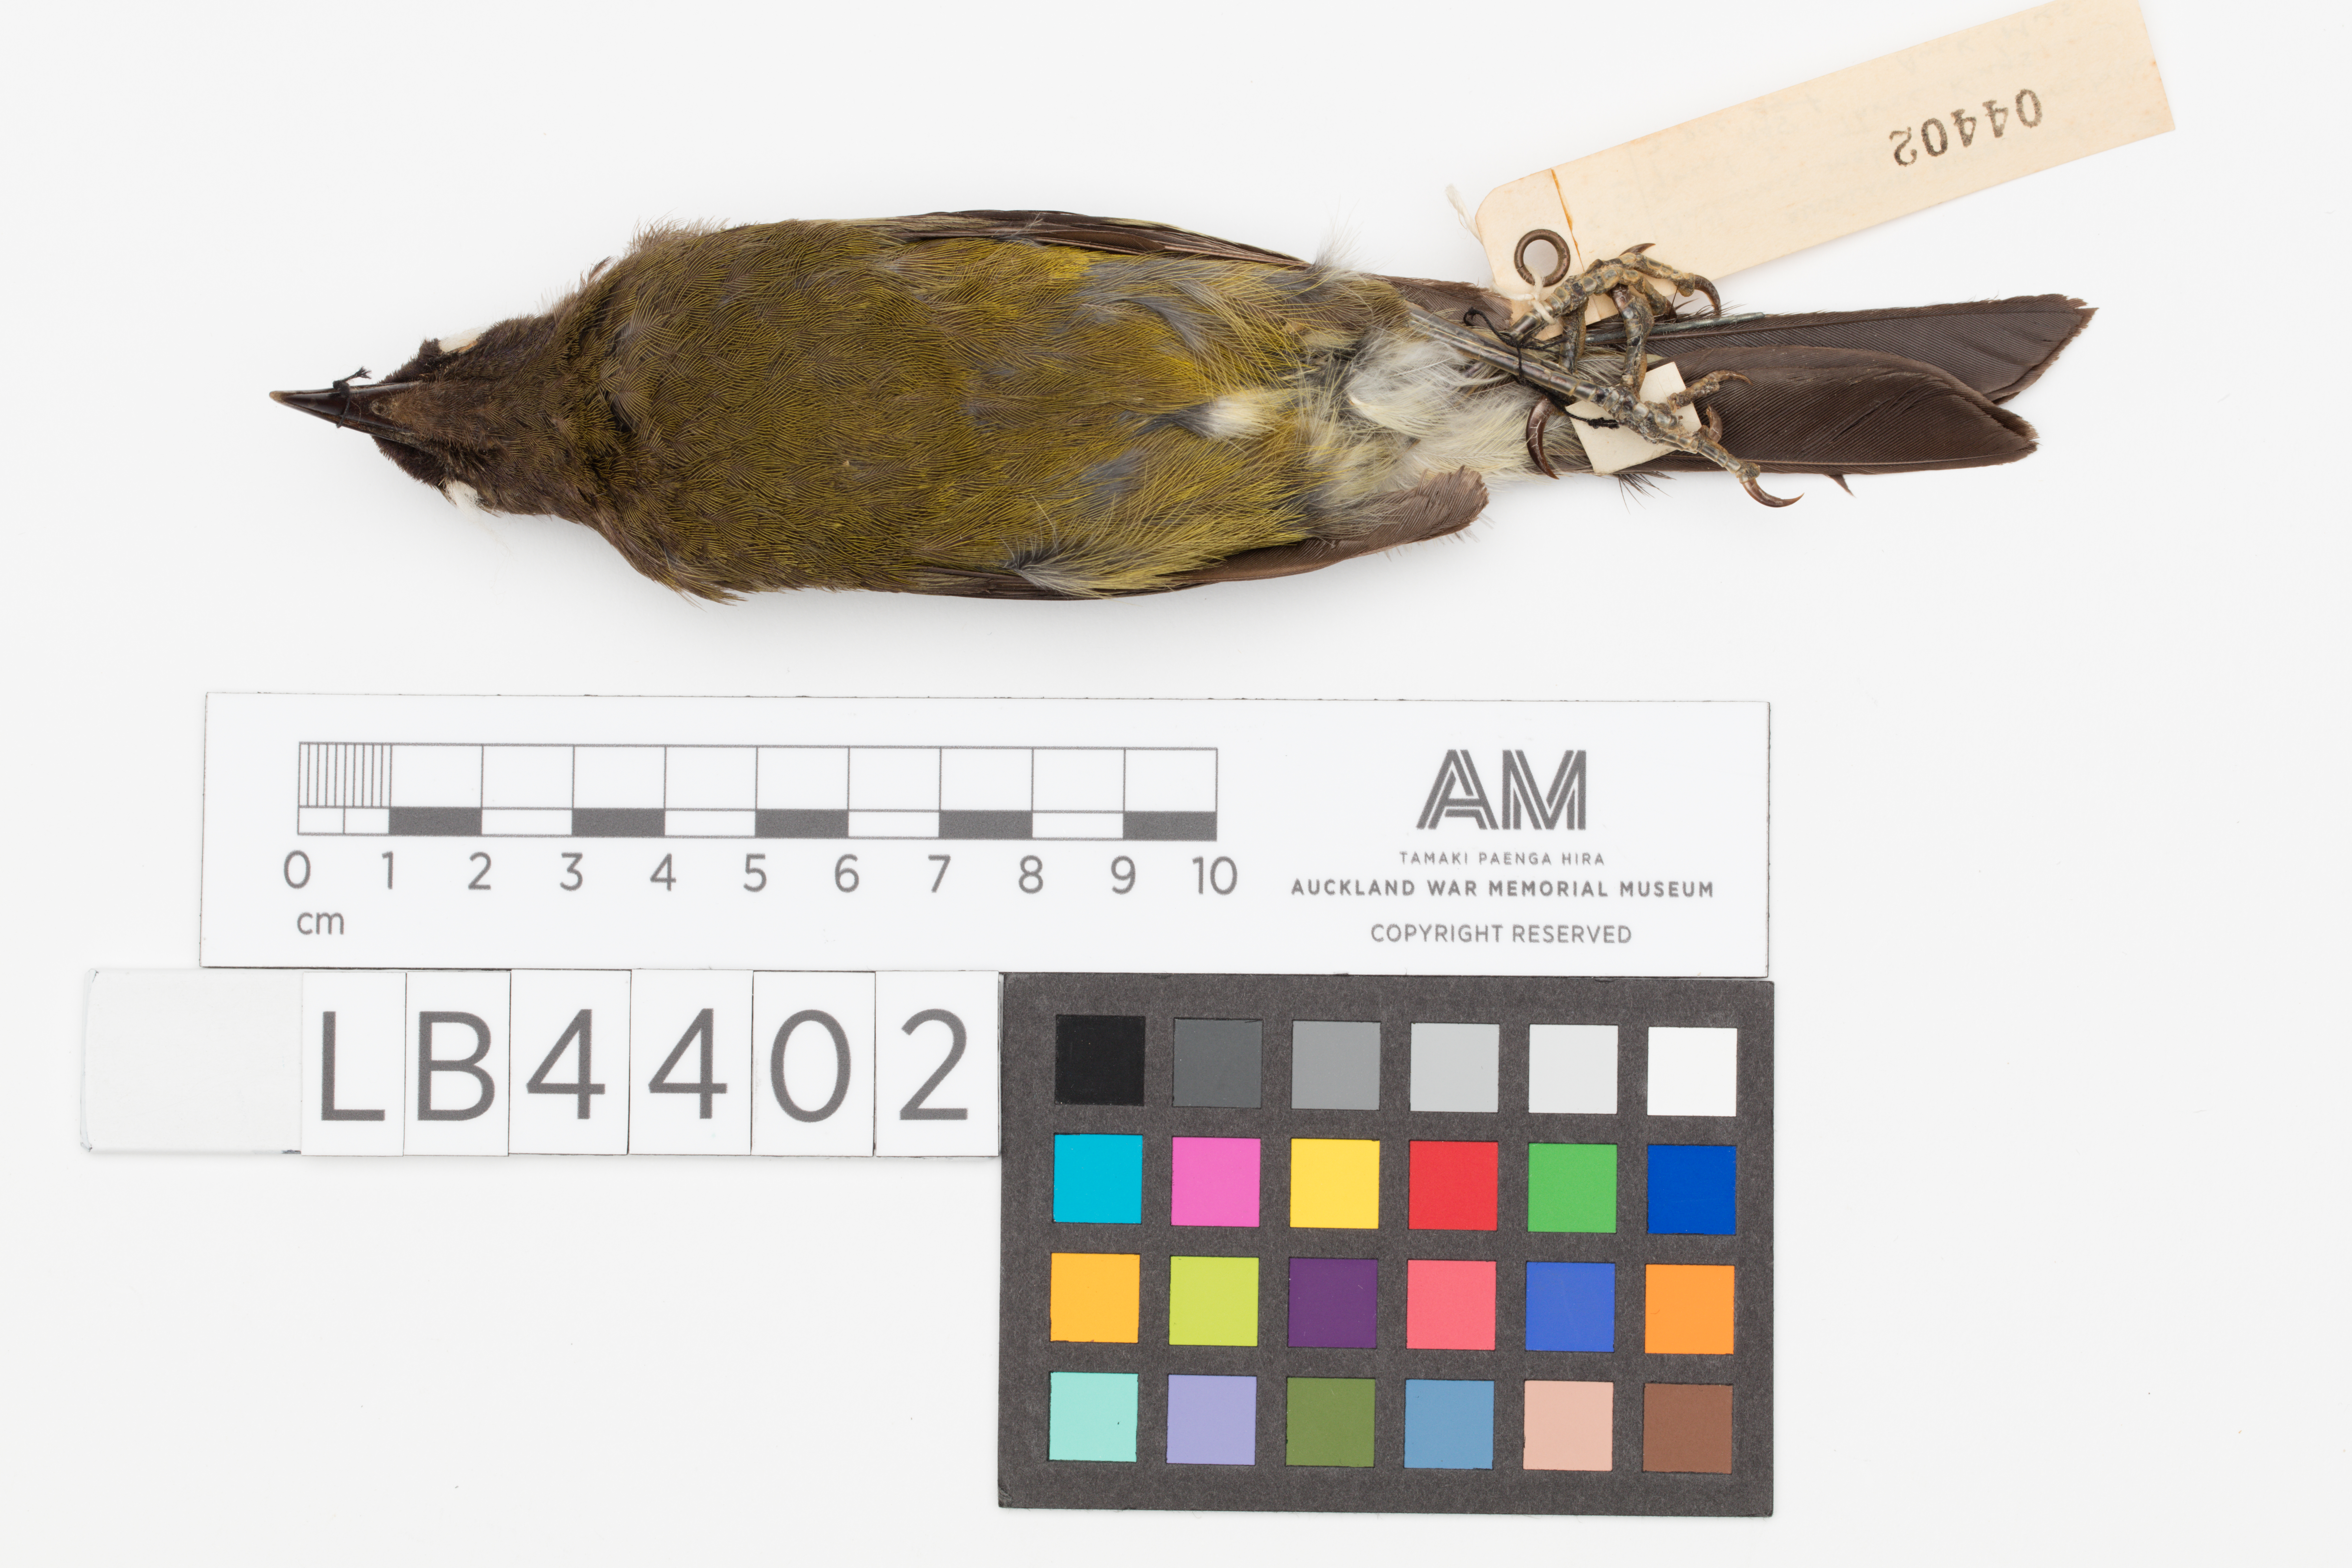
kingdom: Animalia
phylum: Chordata
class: Aves
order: Passeriformes
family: Meliphagidae
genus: Anthornis
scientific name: Anthornis melanura
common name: New zealand bellbird
